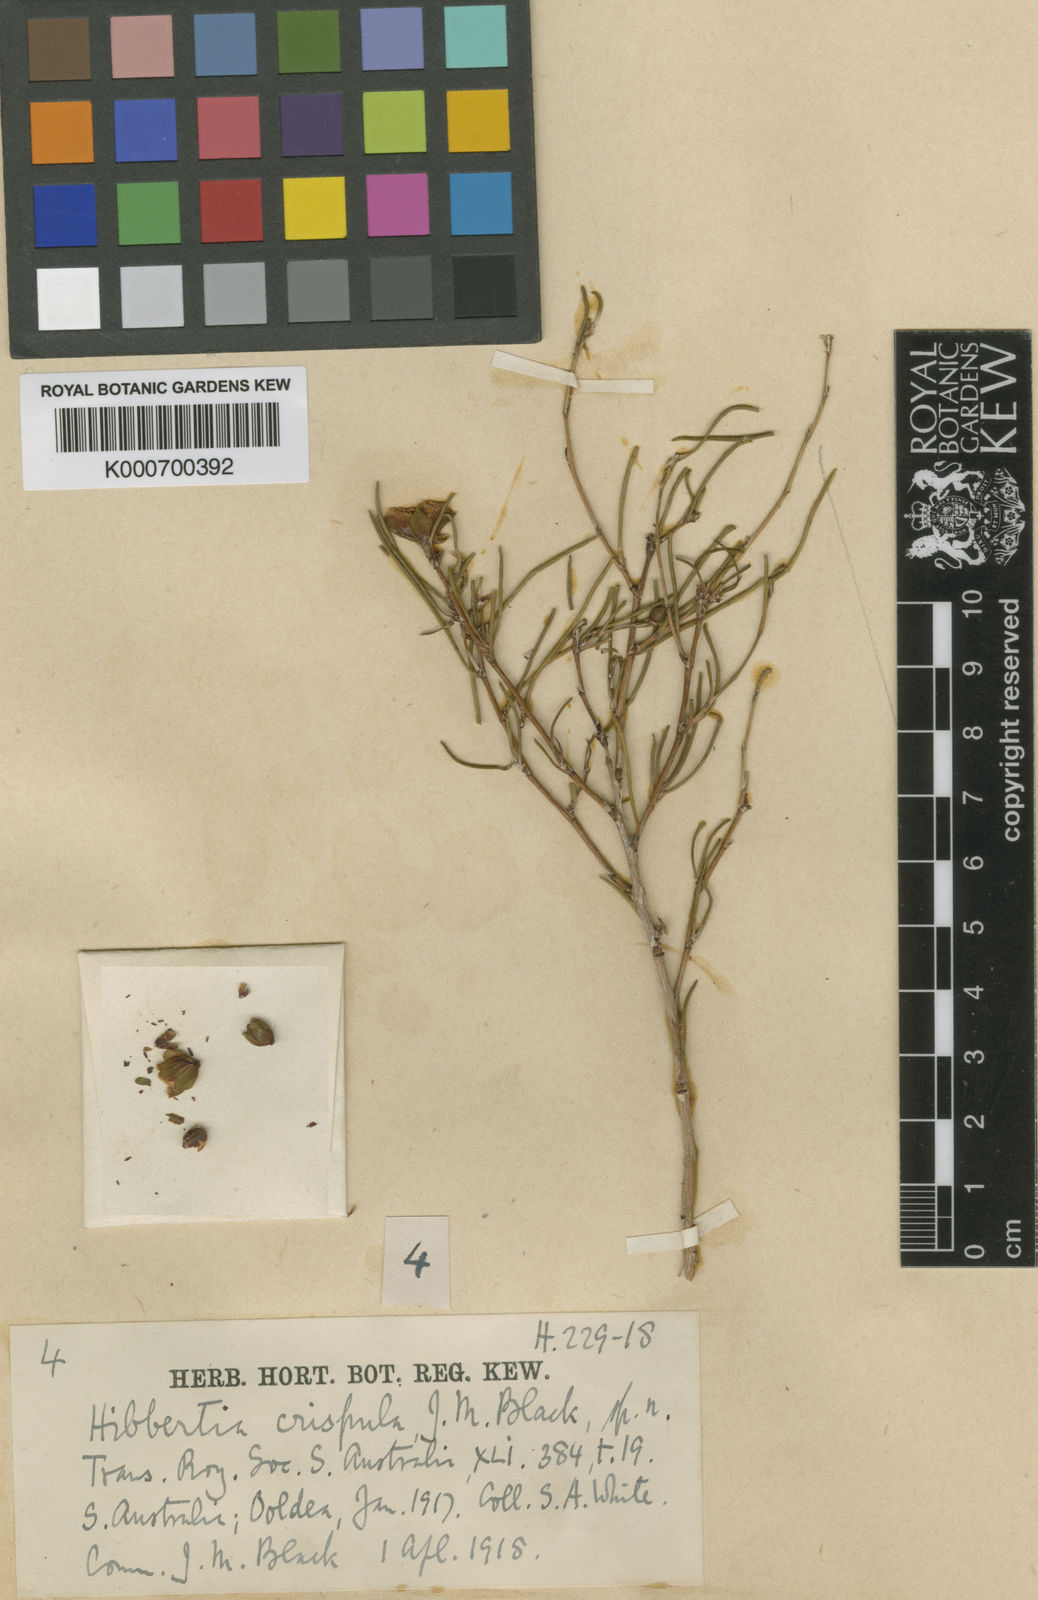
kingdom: Plantae
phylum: Tracheophyta
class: Magnoliopsida
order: Dilleniales
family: Dilleniaceae
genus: Hibbertia
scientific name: Hibbertia crispula
